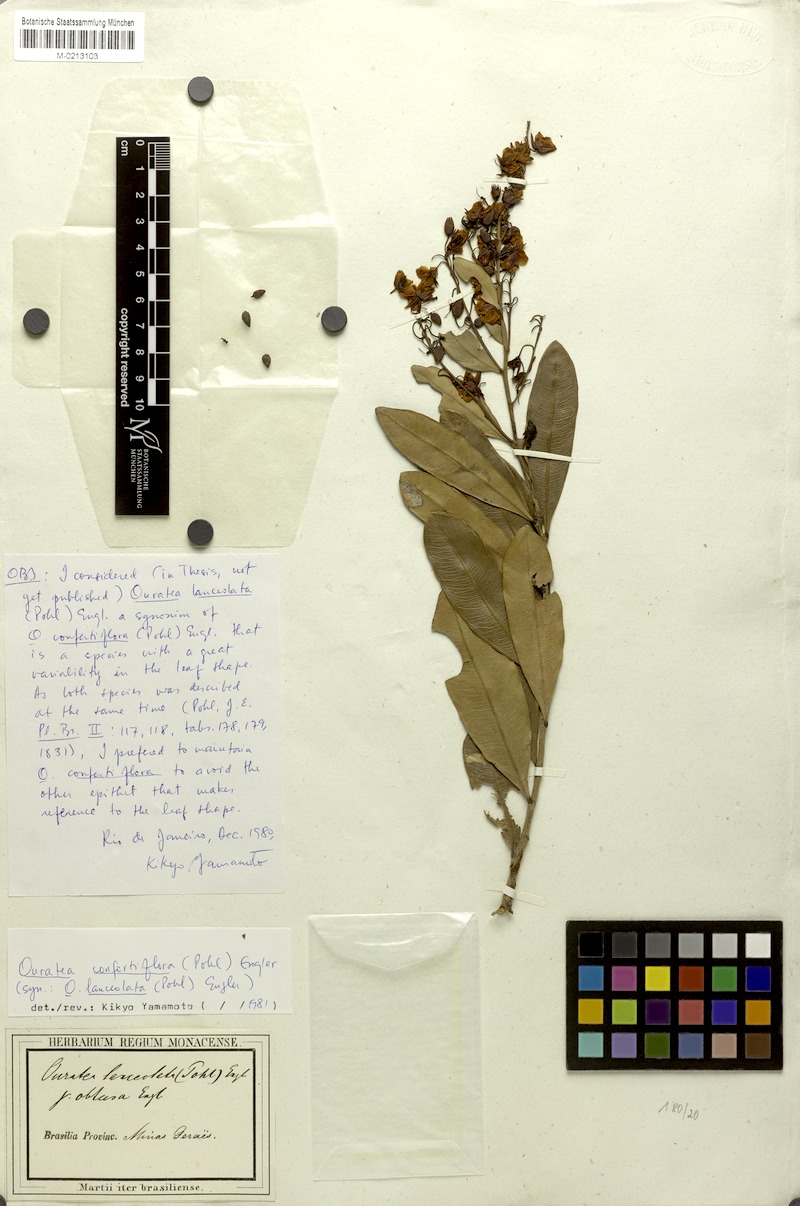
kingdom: Plantae
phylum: Tracheophyta
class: Magnoliopsida
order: Malpighiales
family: Ochnaceae
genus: Ouratea
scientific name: Ouratea confertiflora
